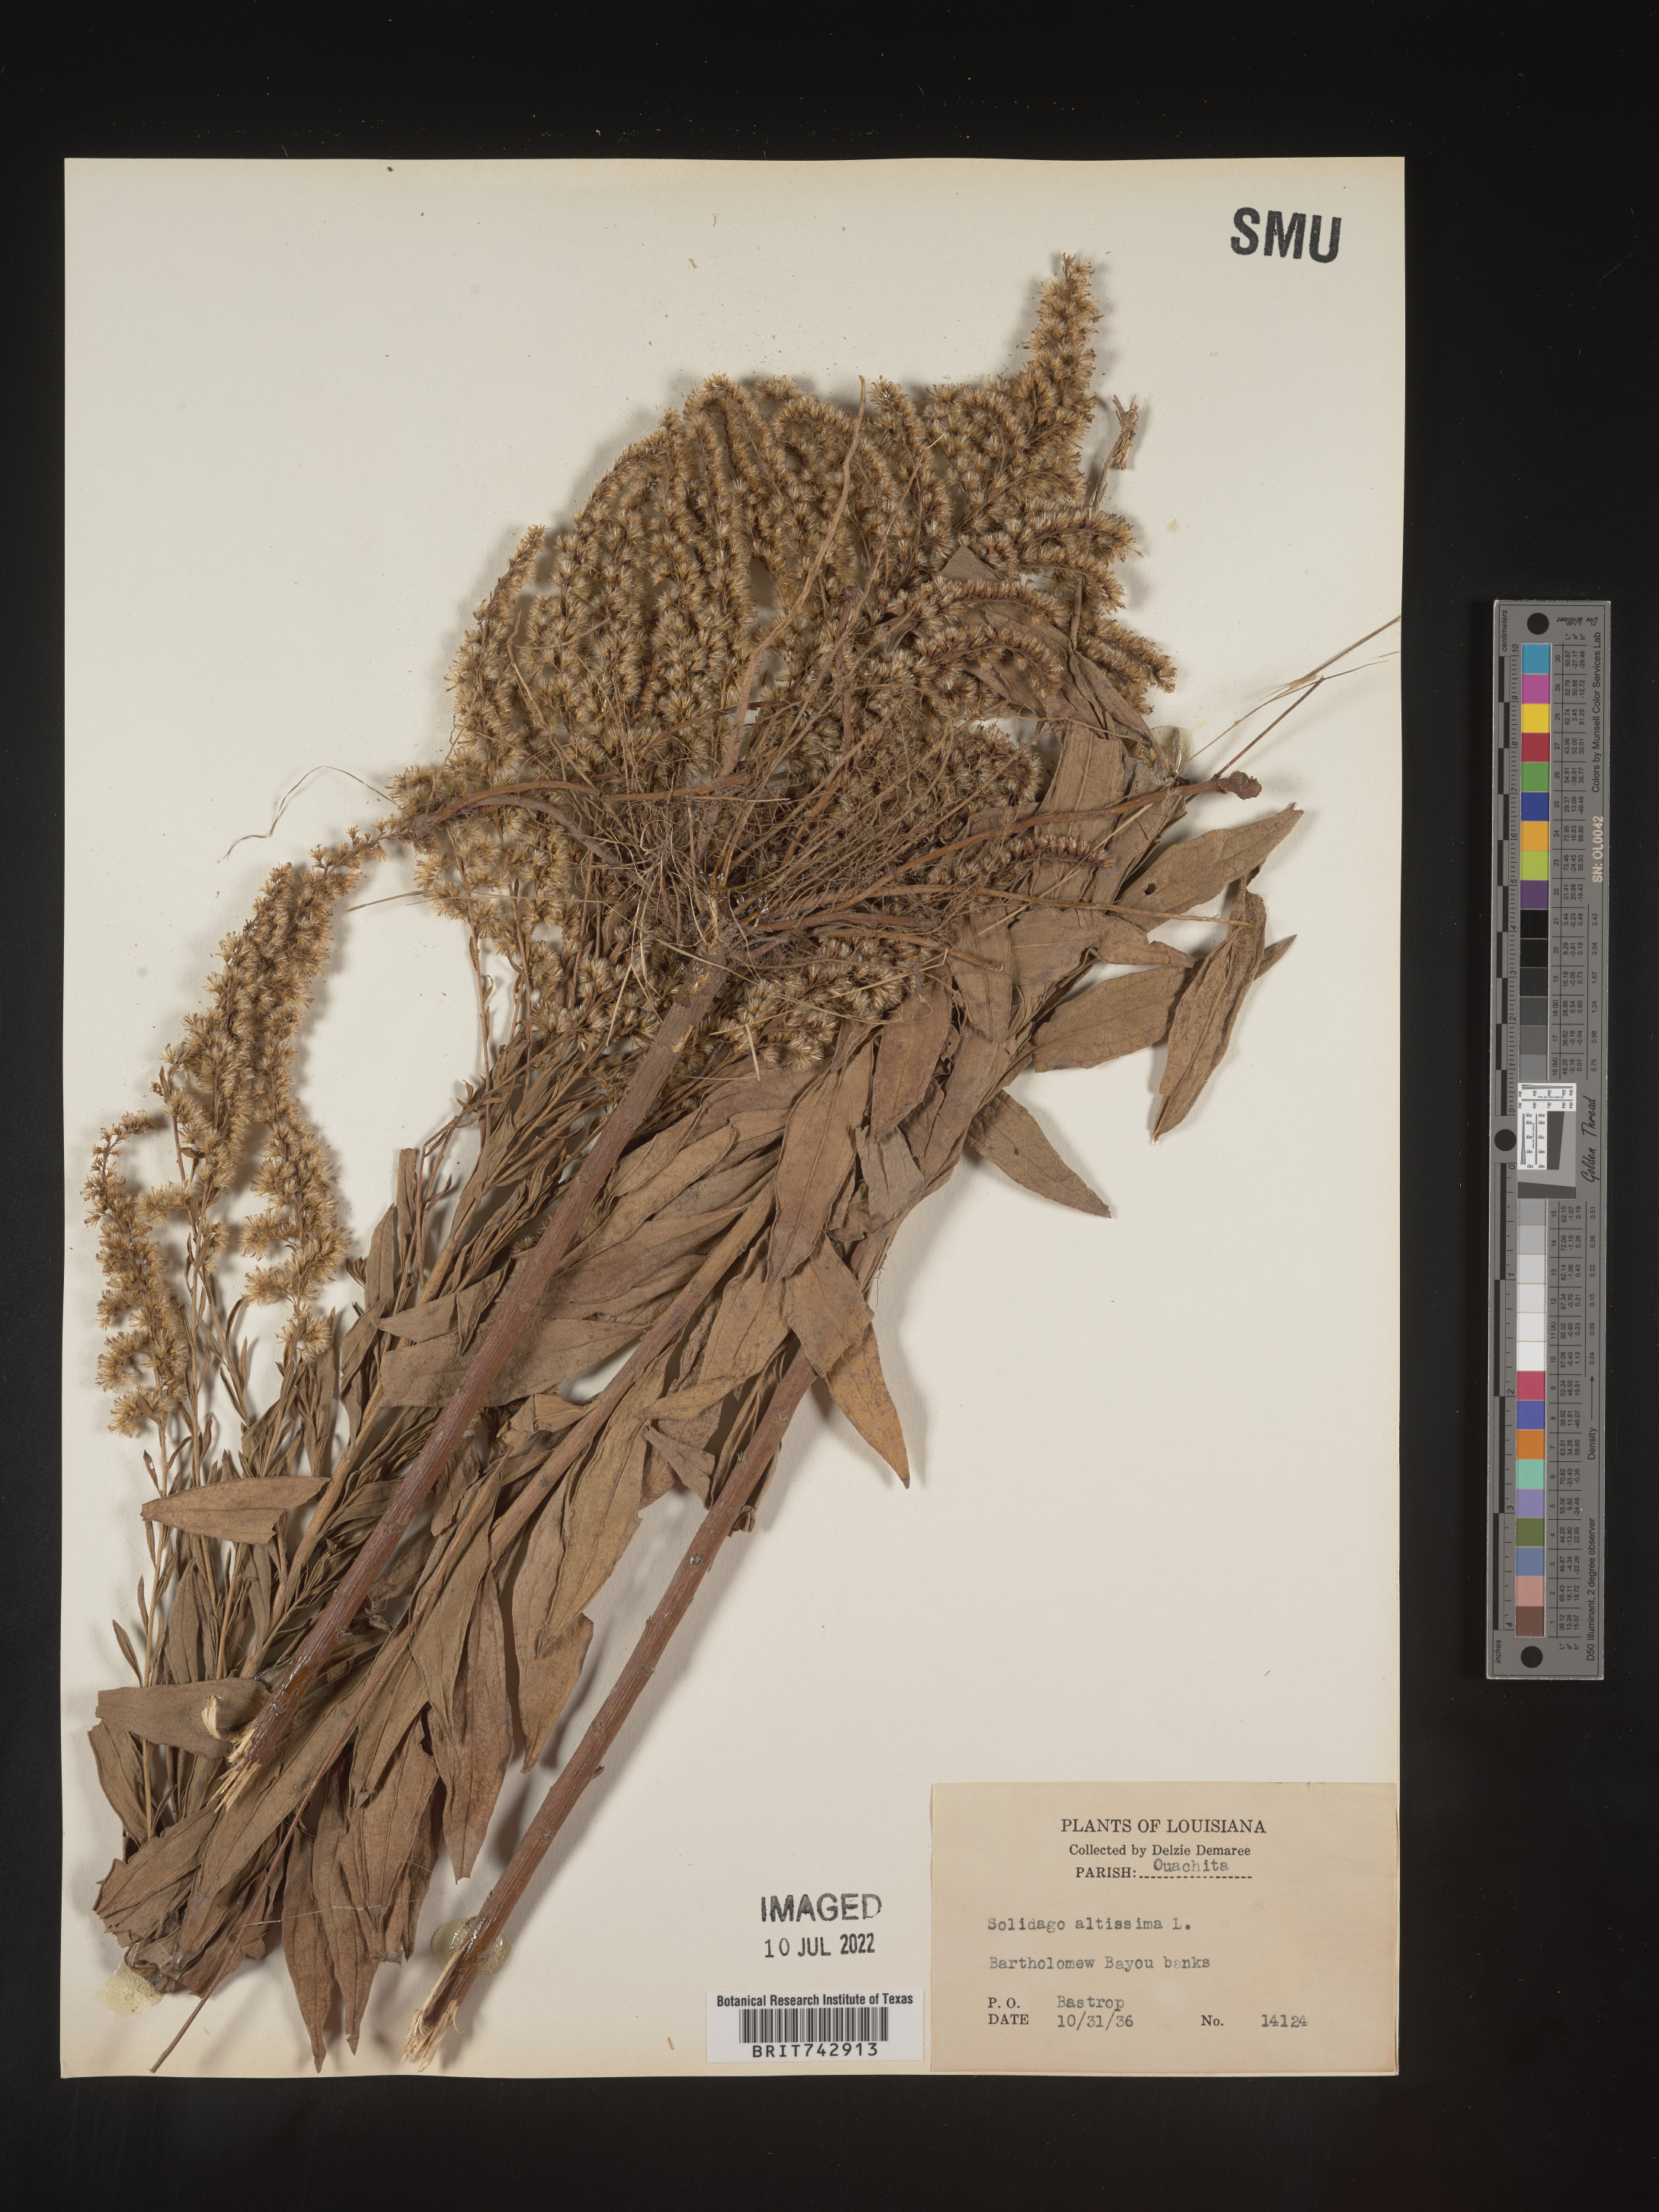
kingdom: Plantae
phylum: Tracheophyta
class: Magnoliopsida
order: Asterales
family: Asteraceae
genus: Solidago
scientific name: Solidago altissima
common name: Late goldenrod
